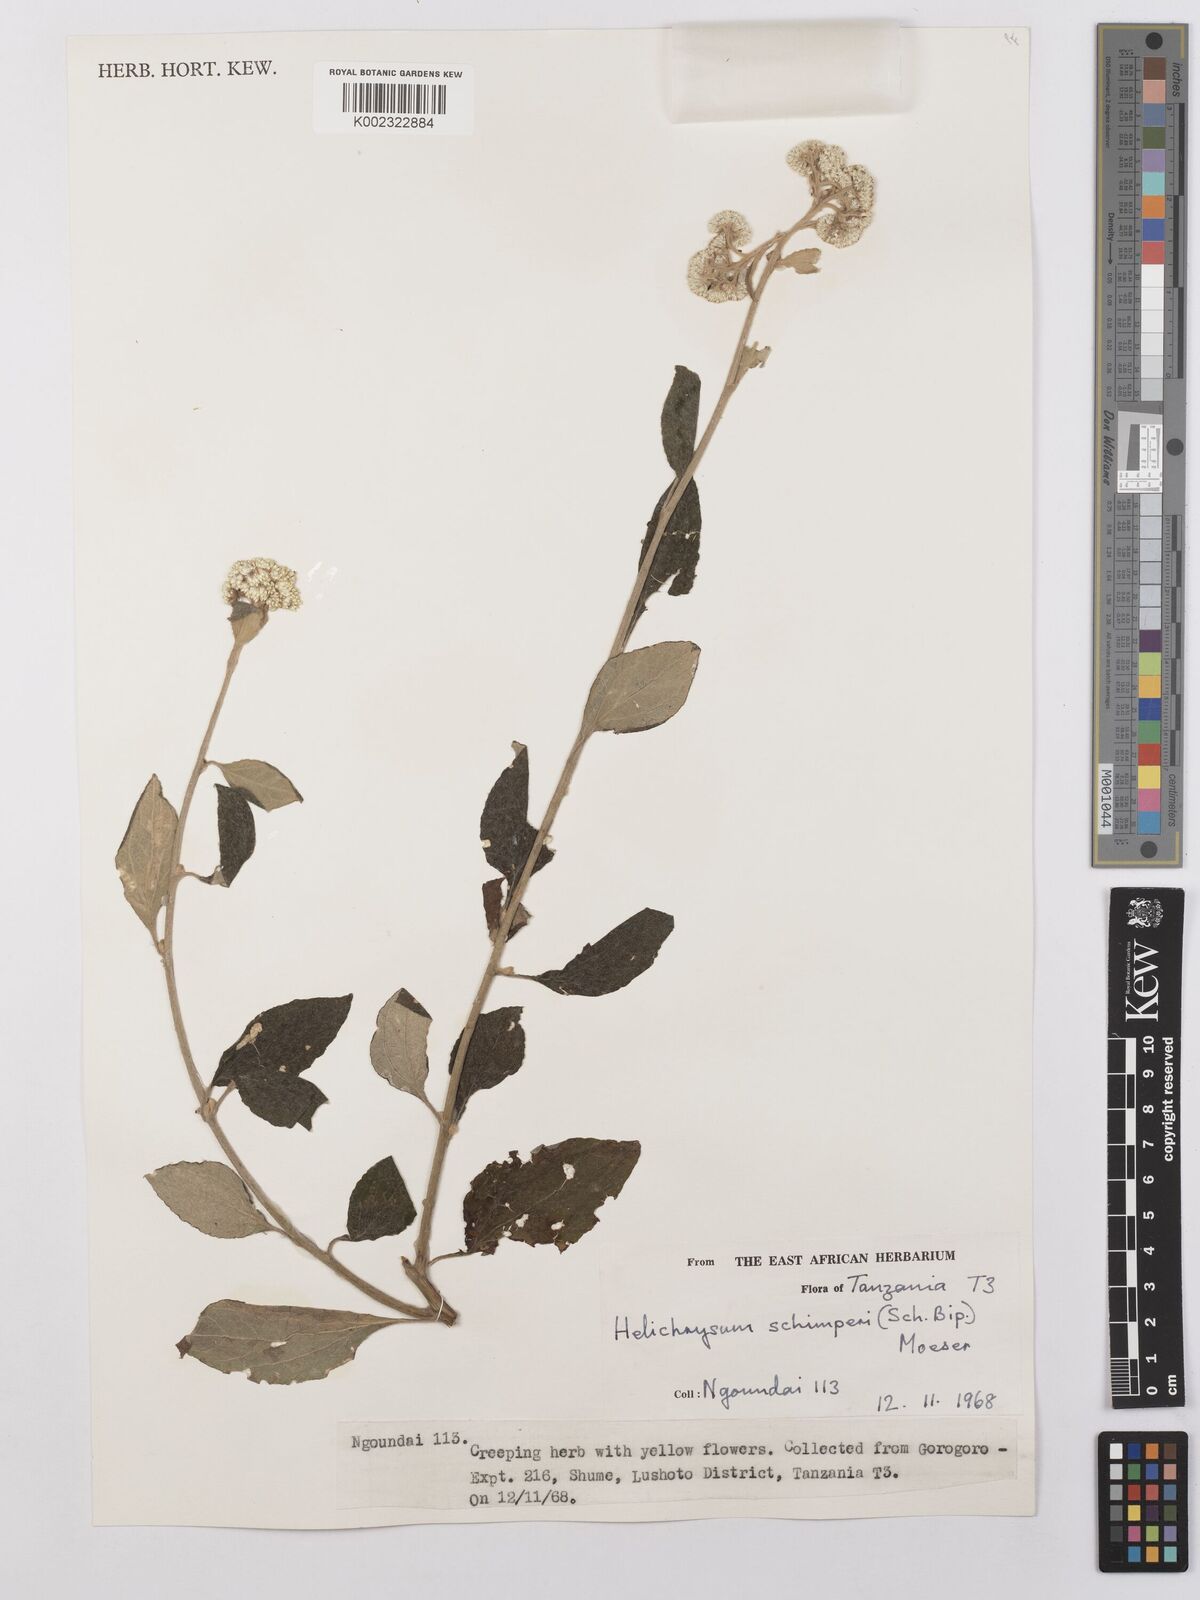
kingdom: Plantae
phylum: Tracheophyta
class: Magnoliopsida
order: Asterales
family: Asteraceae
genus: Helichrysum
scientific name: Helichrysum schimperi
